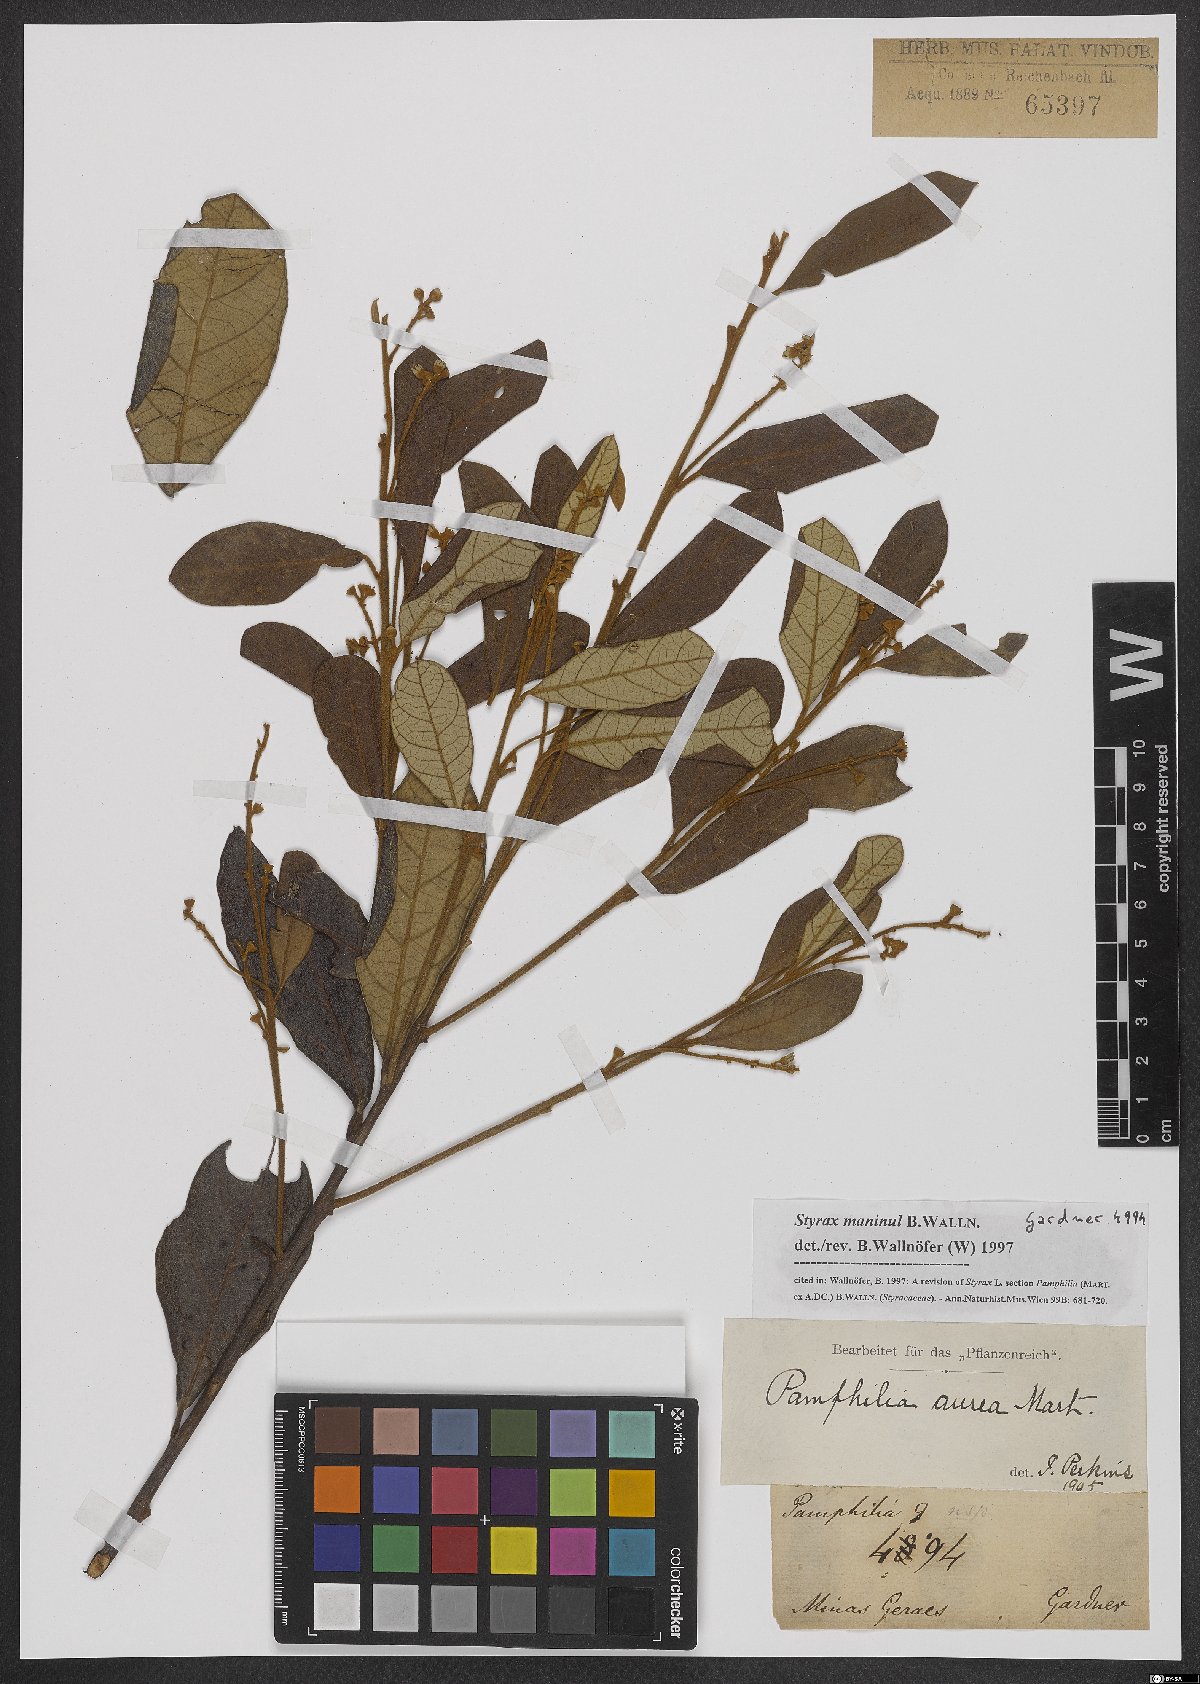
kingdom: Plantae
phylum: Tracheophyta
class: Magnoliopsida
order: Ericales
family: Styracaceae
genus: Styrax
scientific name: Styrax maninul
